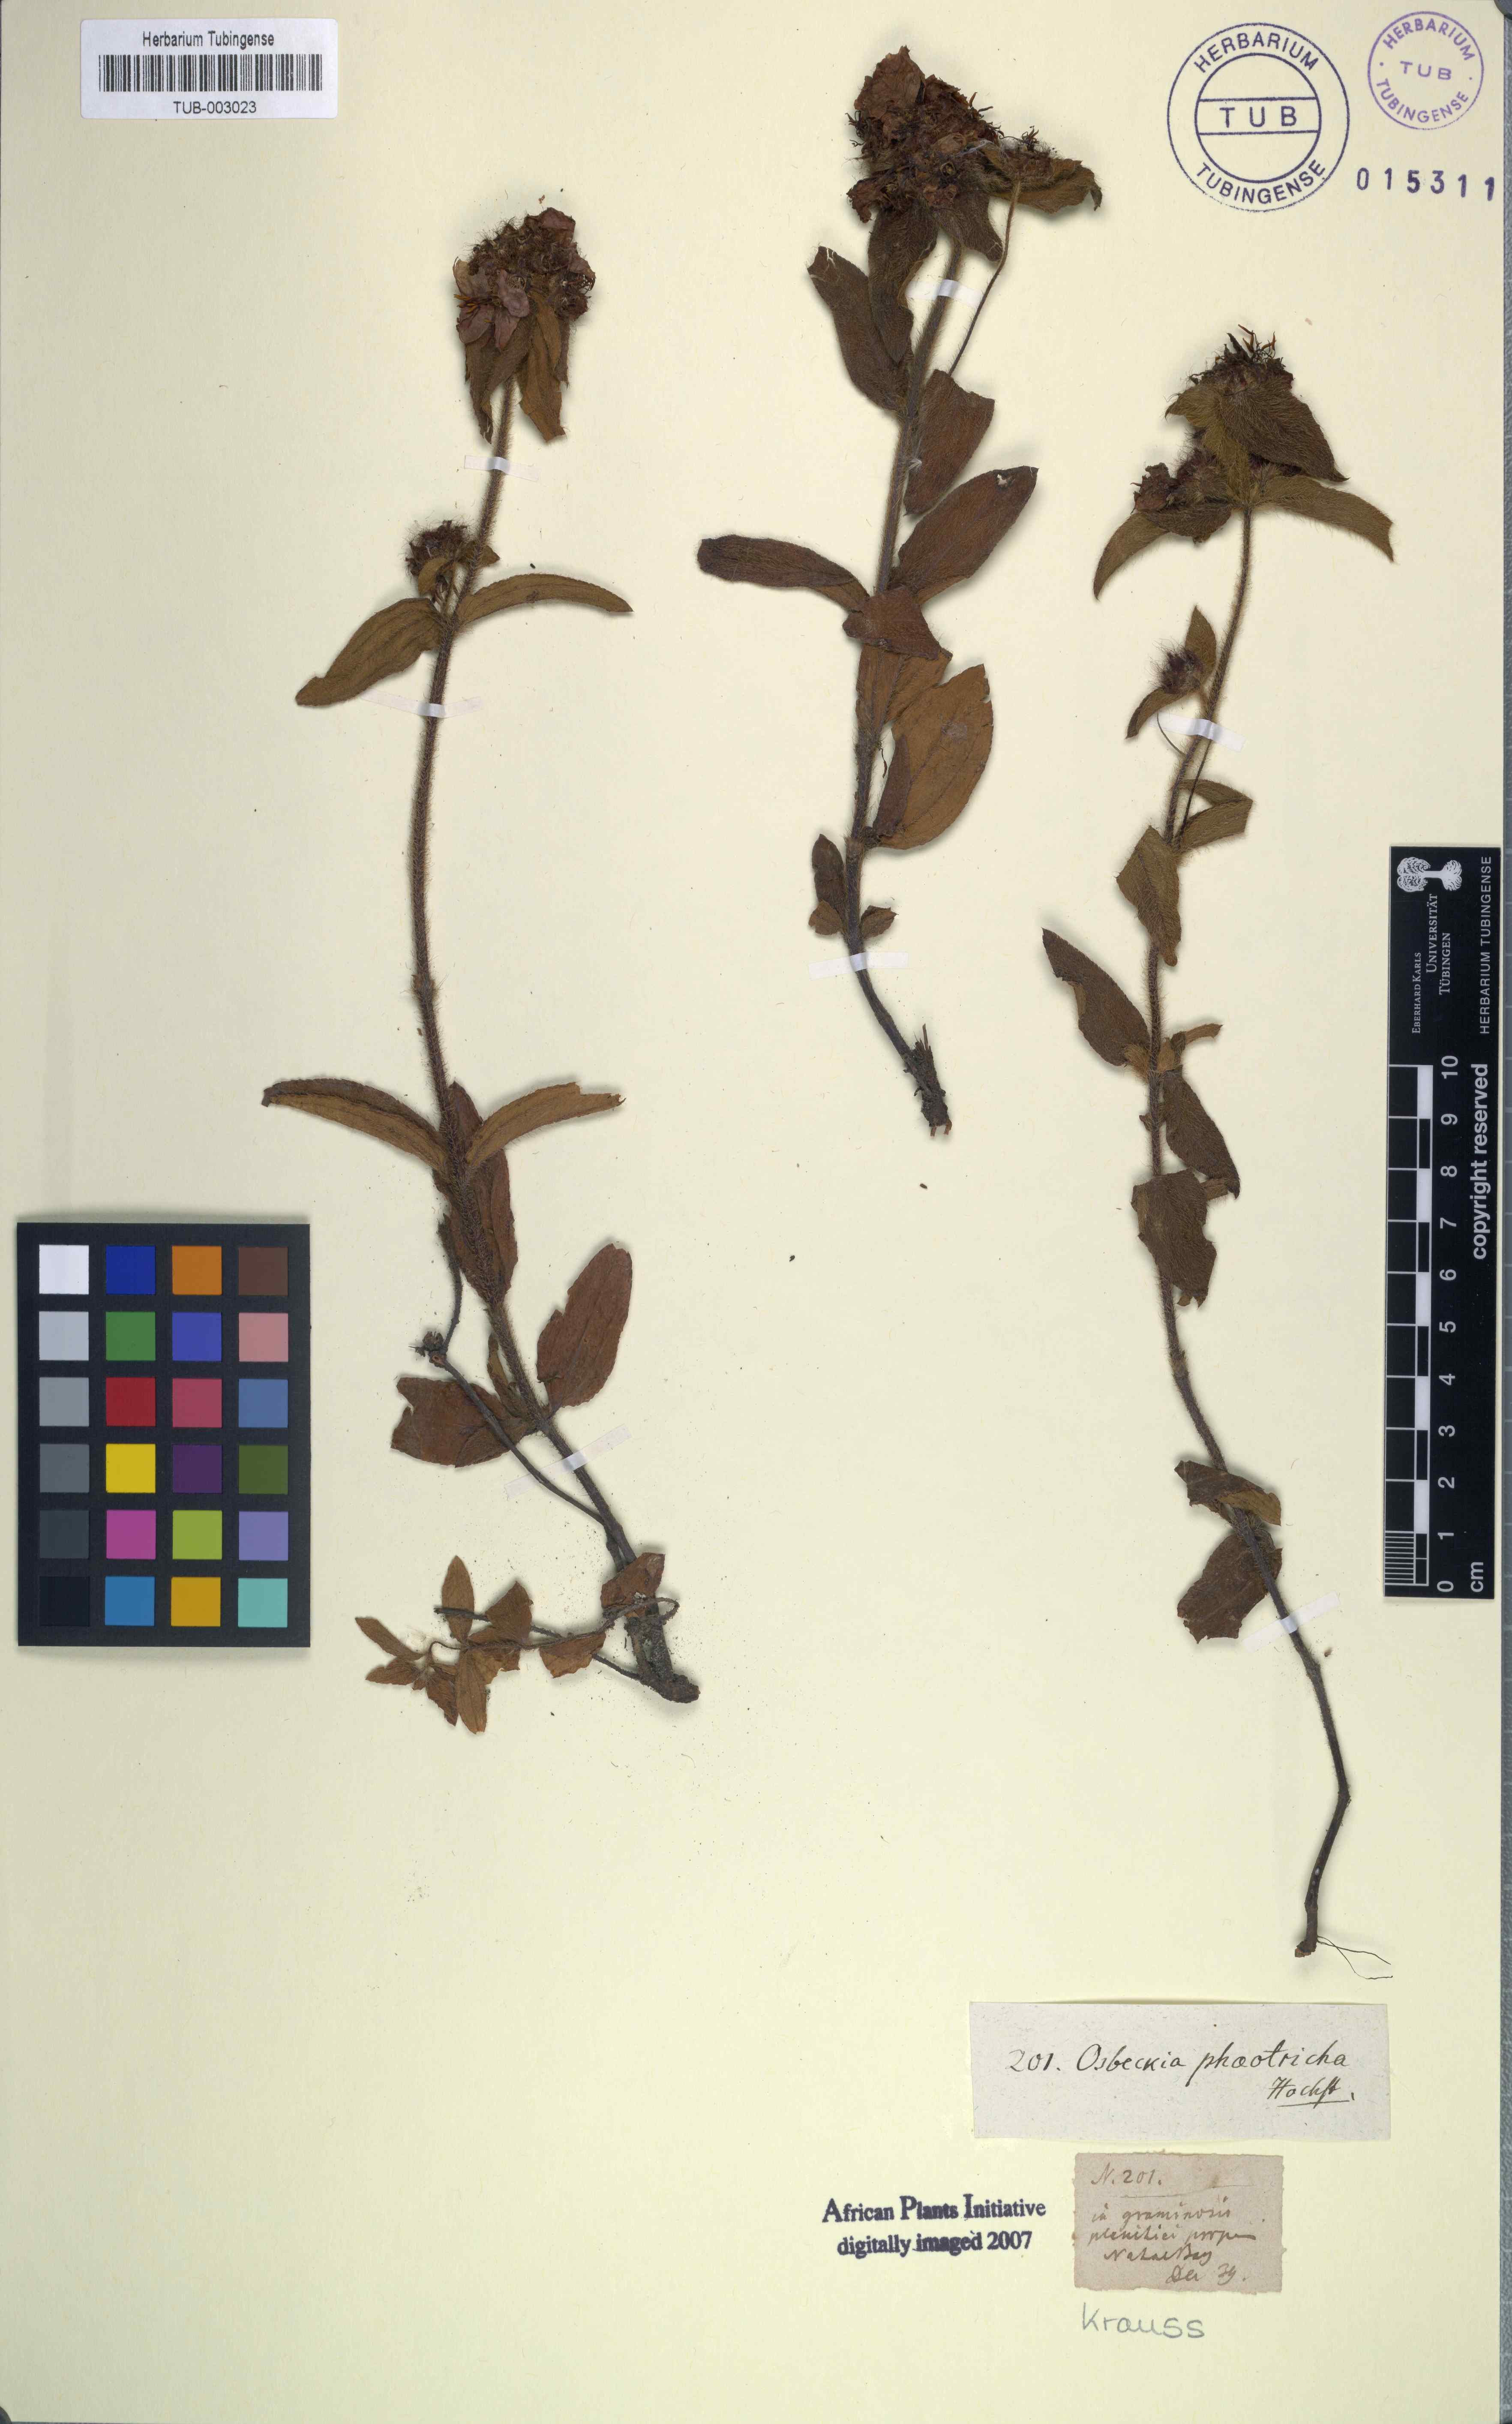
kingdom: Plantae
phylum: Tracheophyta
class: Magnoliopsida
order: Myrtales
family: Melastomataceae
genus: Antherotoma
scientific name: Antherotoma phaeotricha
